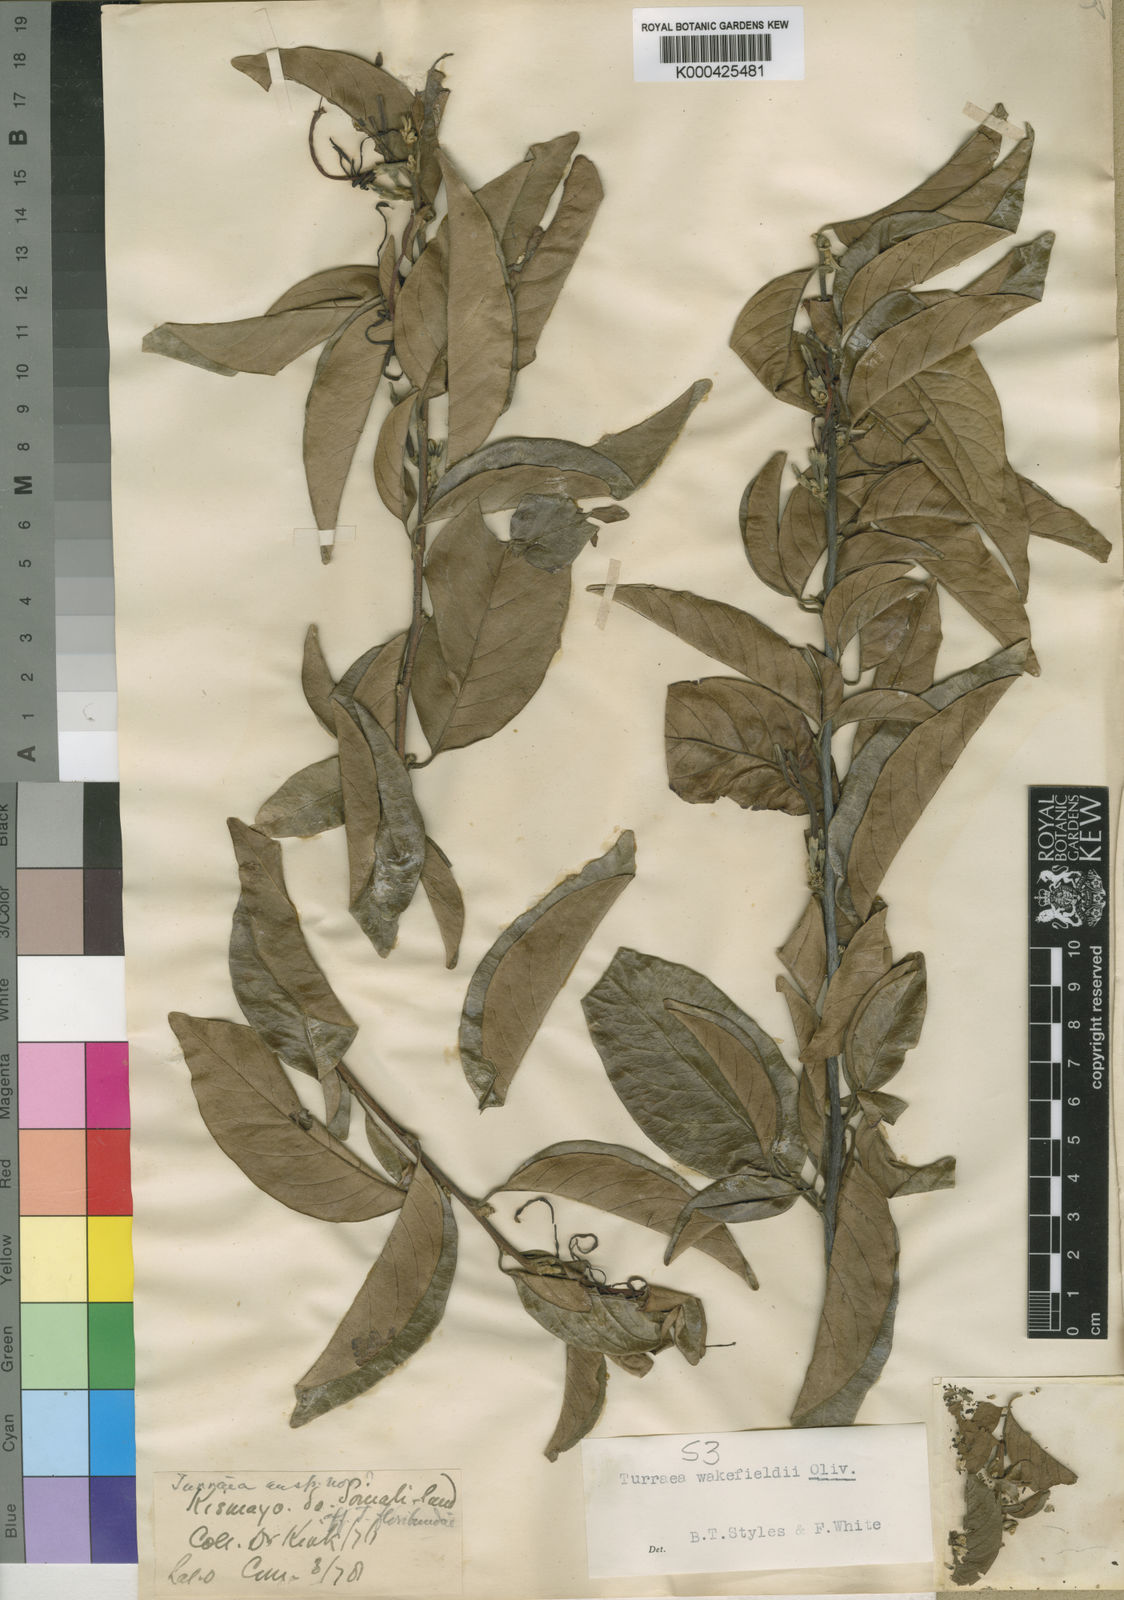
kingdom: Plantae
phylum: Tracheophyta
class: Magnoliopsida
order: Sapindales
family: Meliaceae
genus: Turraea
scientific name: Turraea wakefieldii
